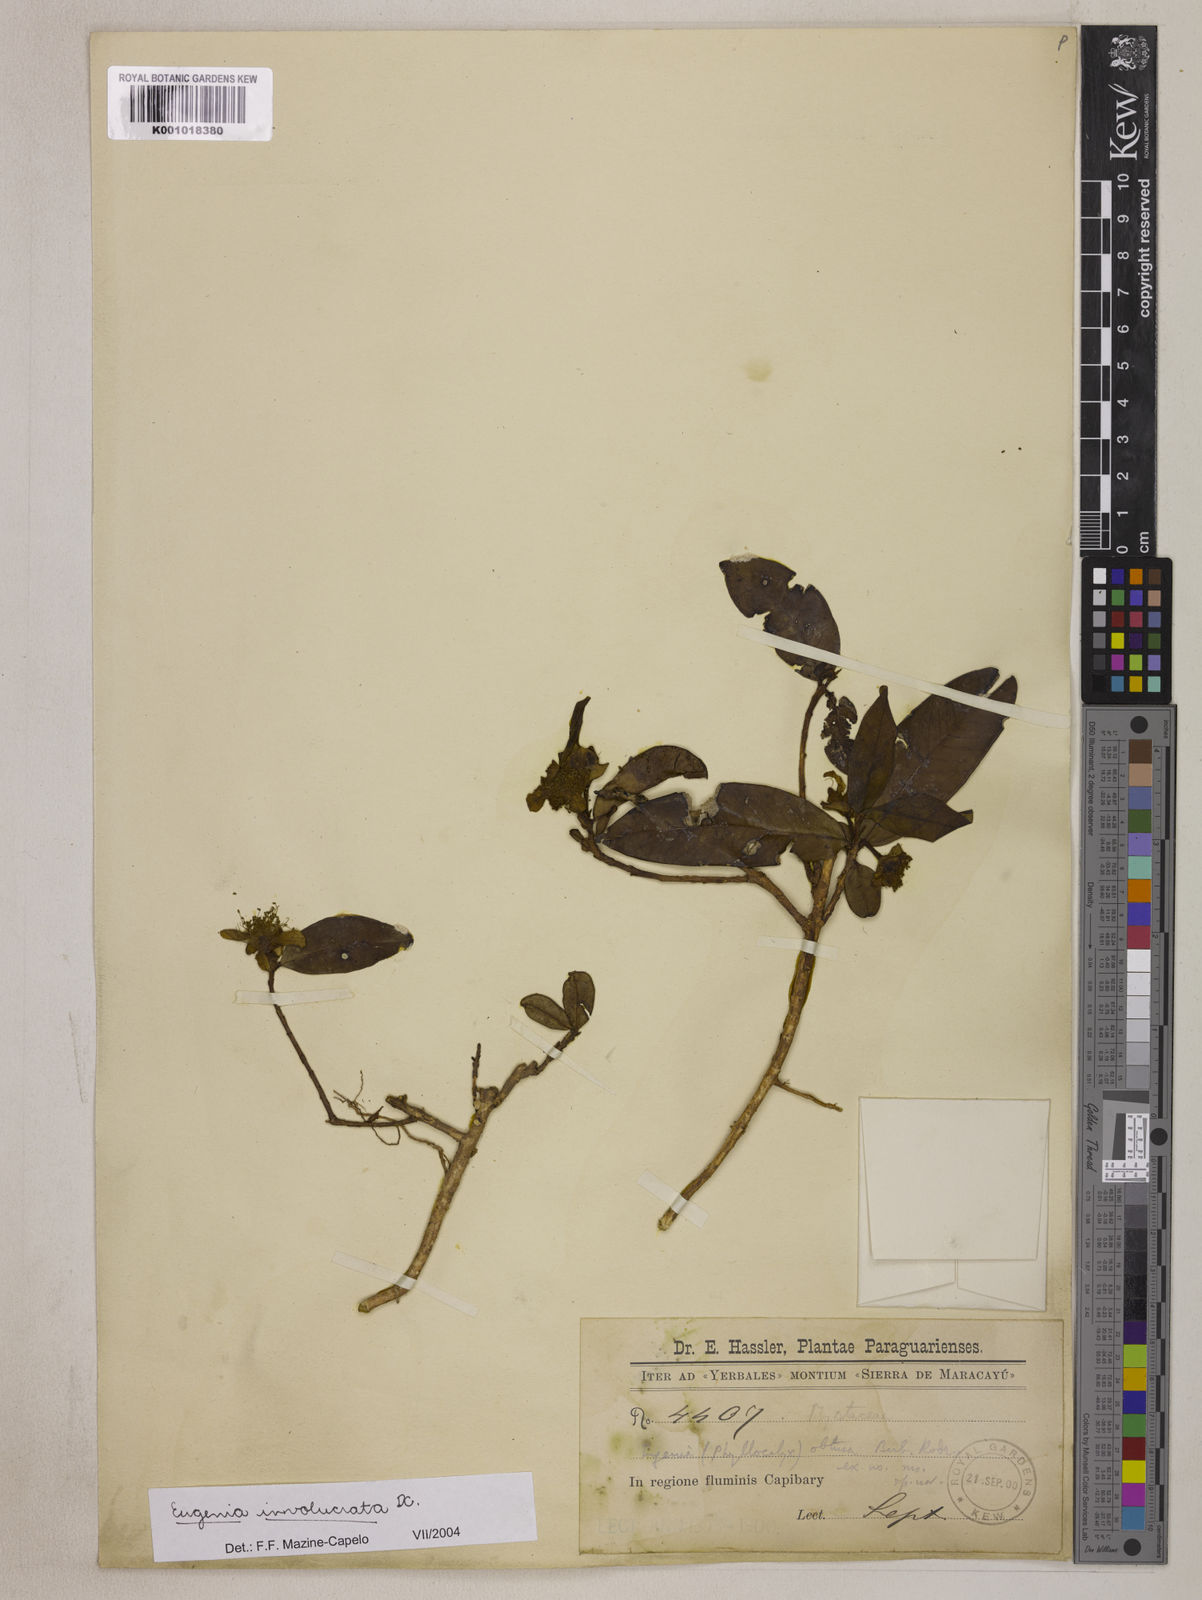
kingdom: Plantae
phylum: Tracheophyta
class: Magnoliopsida
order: Myrtales
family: Myrtaceae
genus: Eugenia
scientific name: Eugenia involucrata
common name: Cherry-of-the-rio grande
